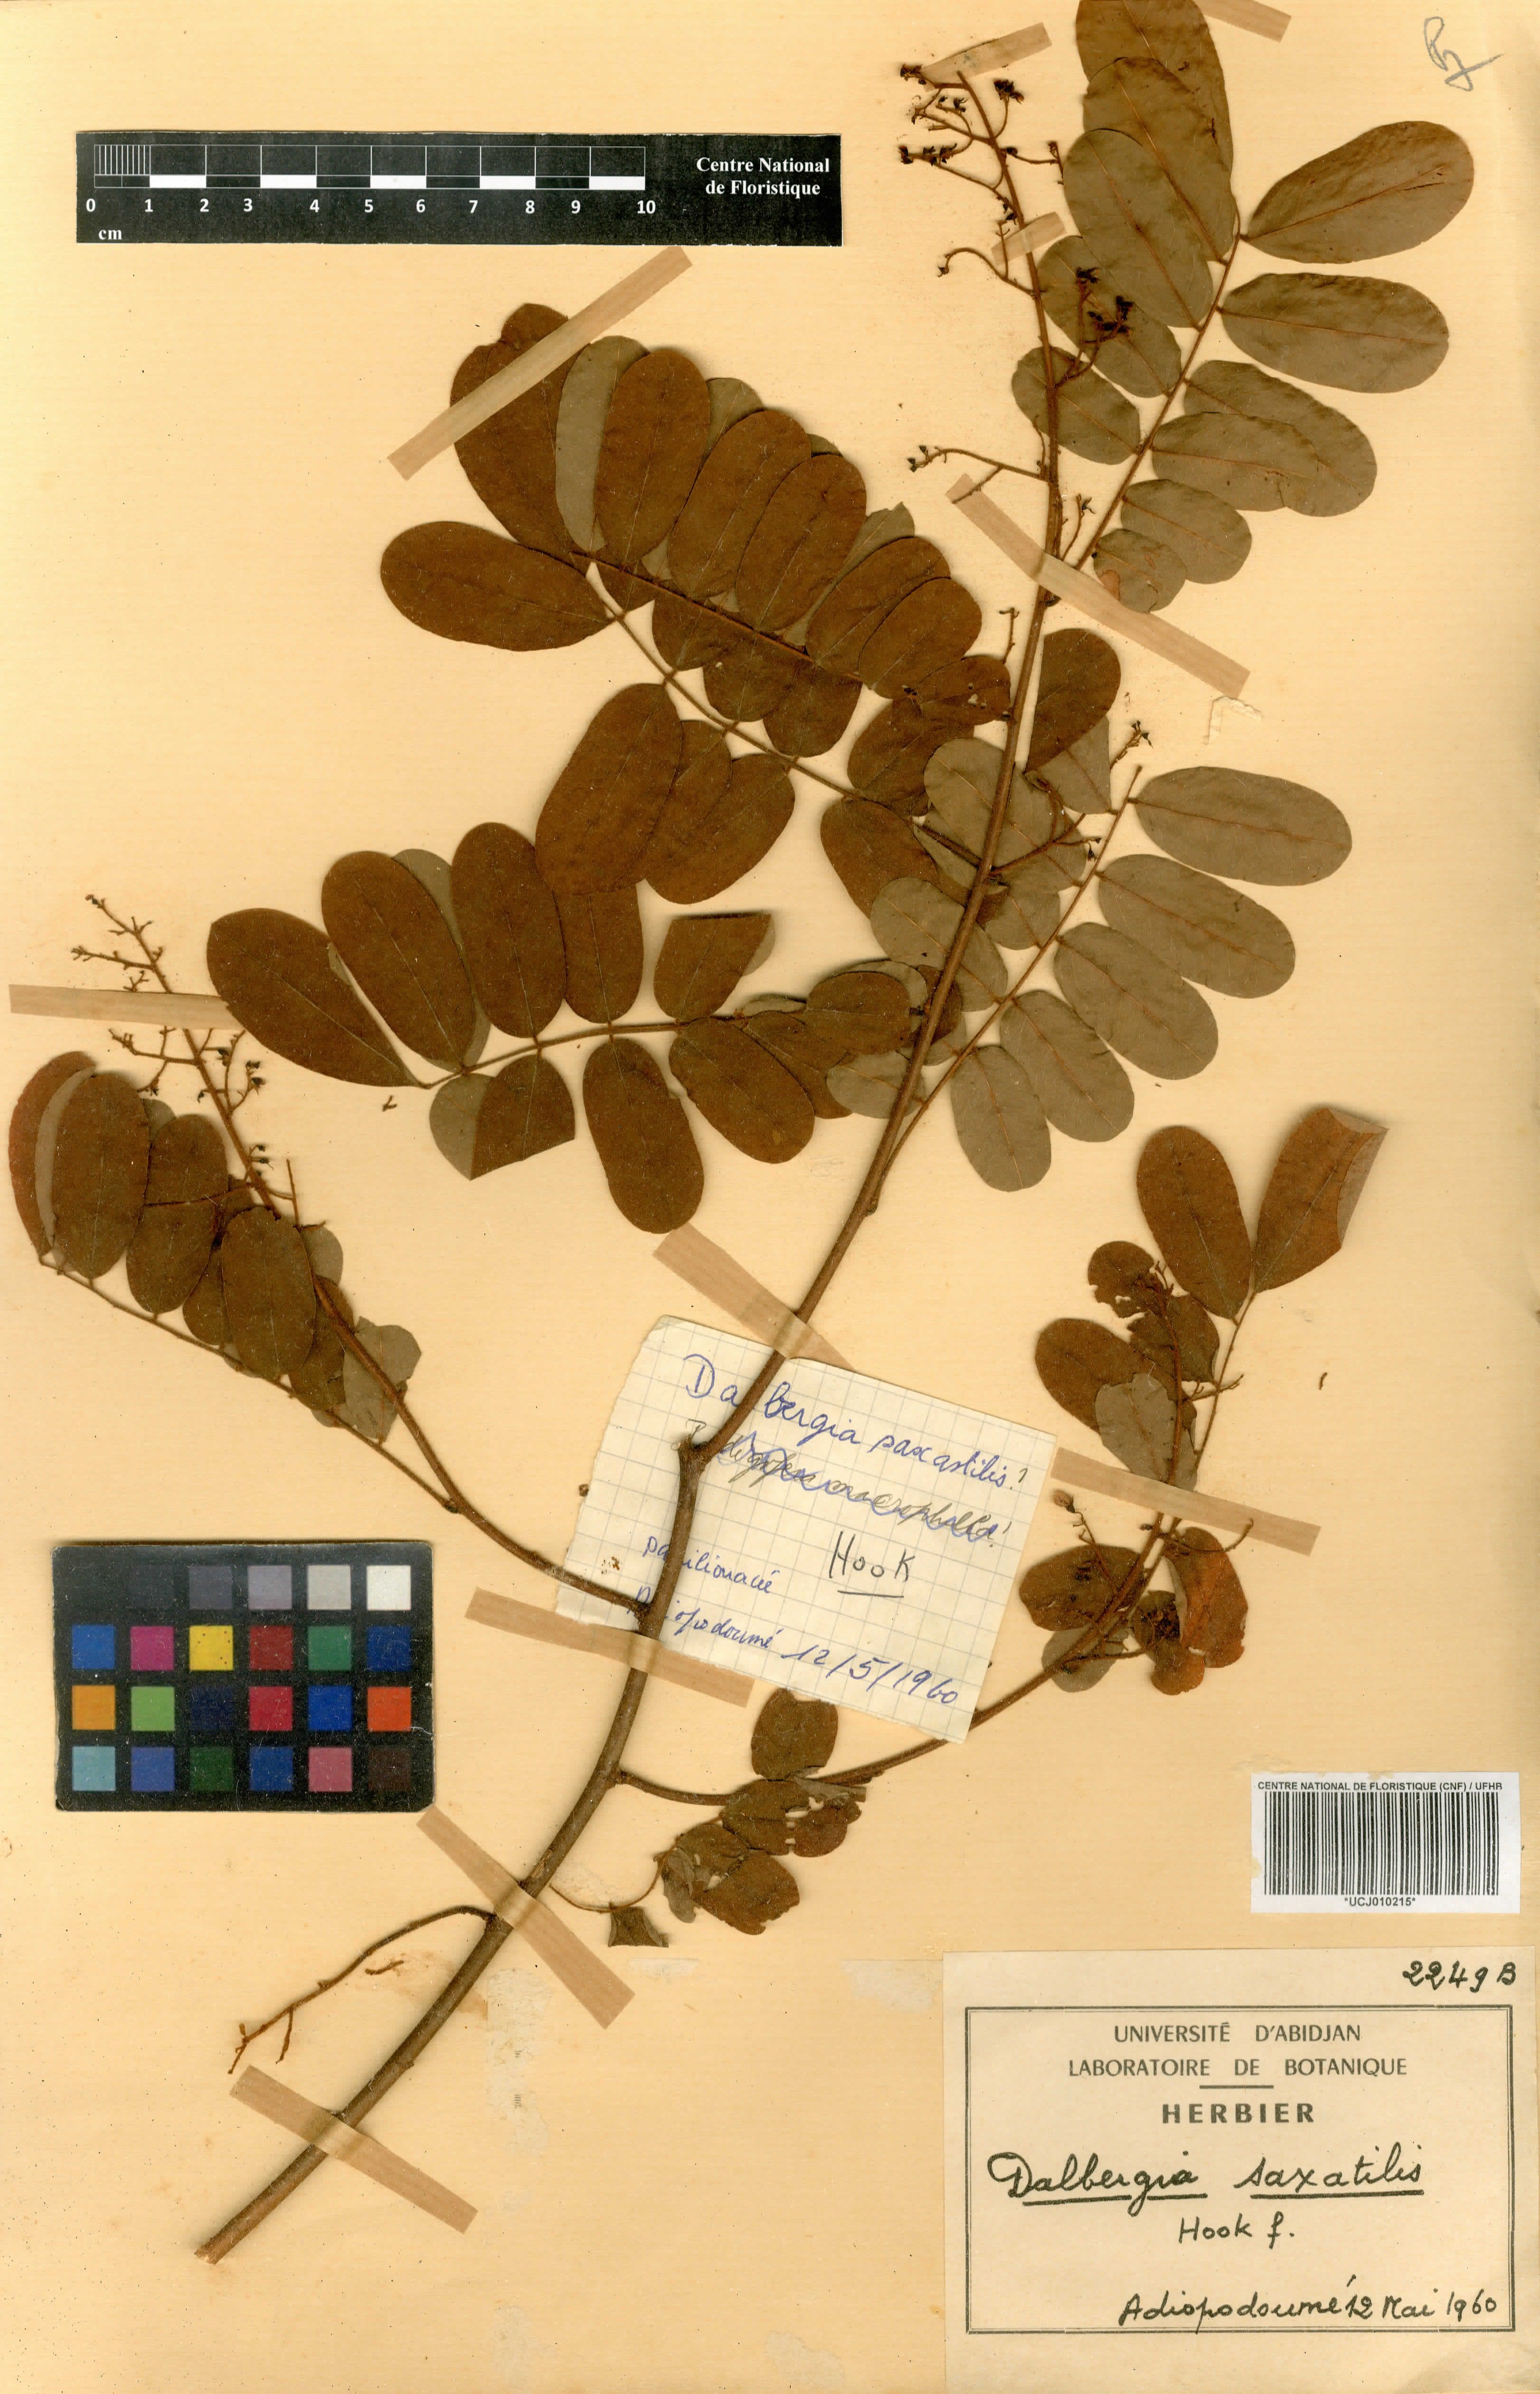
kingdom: Plantae
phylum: Tracheophyta
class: Magnoliopsida
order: Fabales
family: Fabaceae
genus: Dalbergia
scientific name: Dalbergia saxatilis
